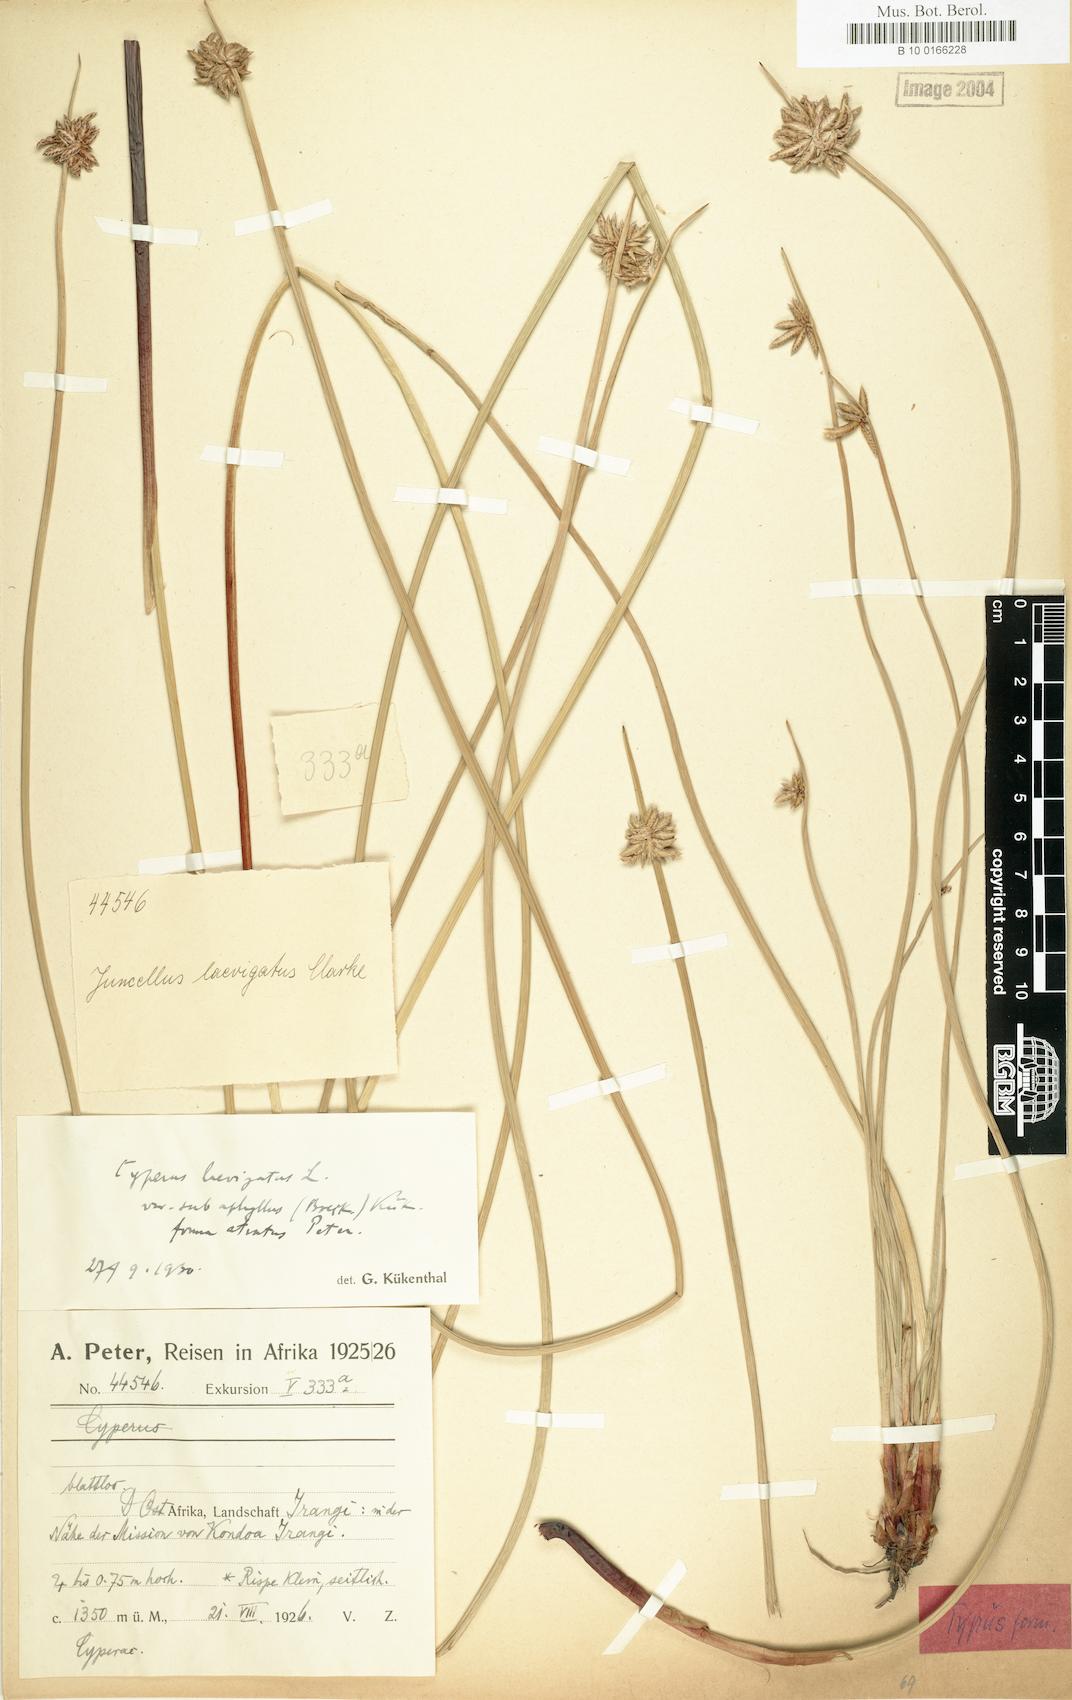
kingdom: Plantae
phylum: Tracheophyta
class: Liliopsida
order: Poales
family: Cyperaceae
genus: Cyperus
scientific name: Cyperus laevigatus
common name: Smooth flat sedge
